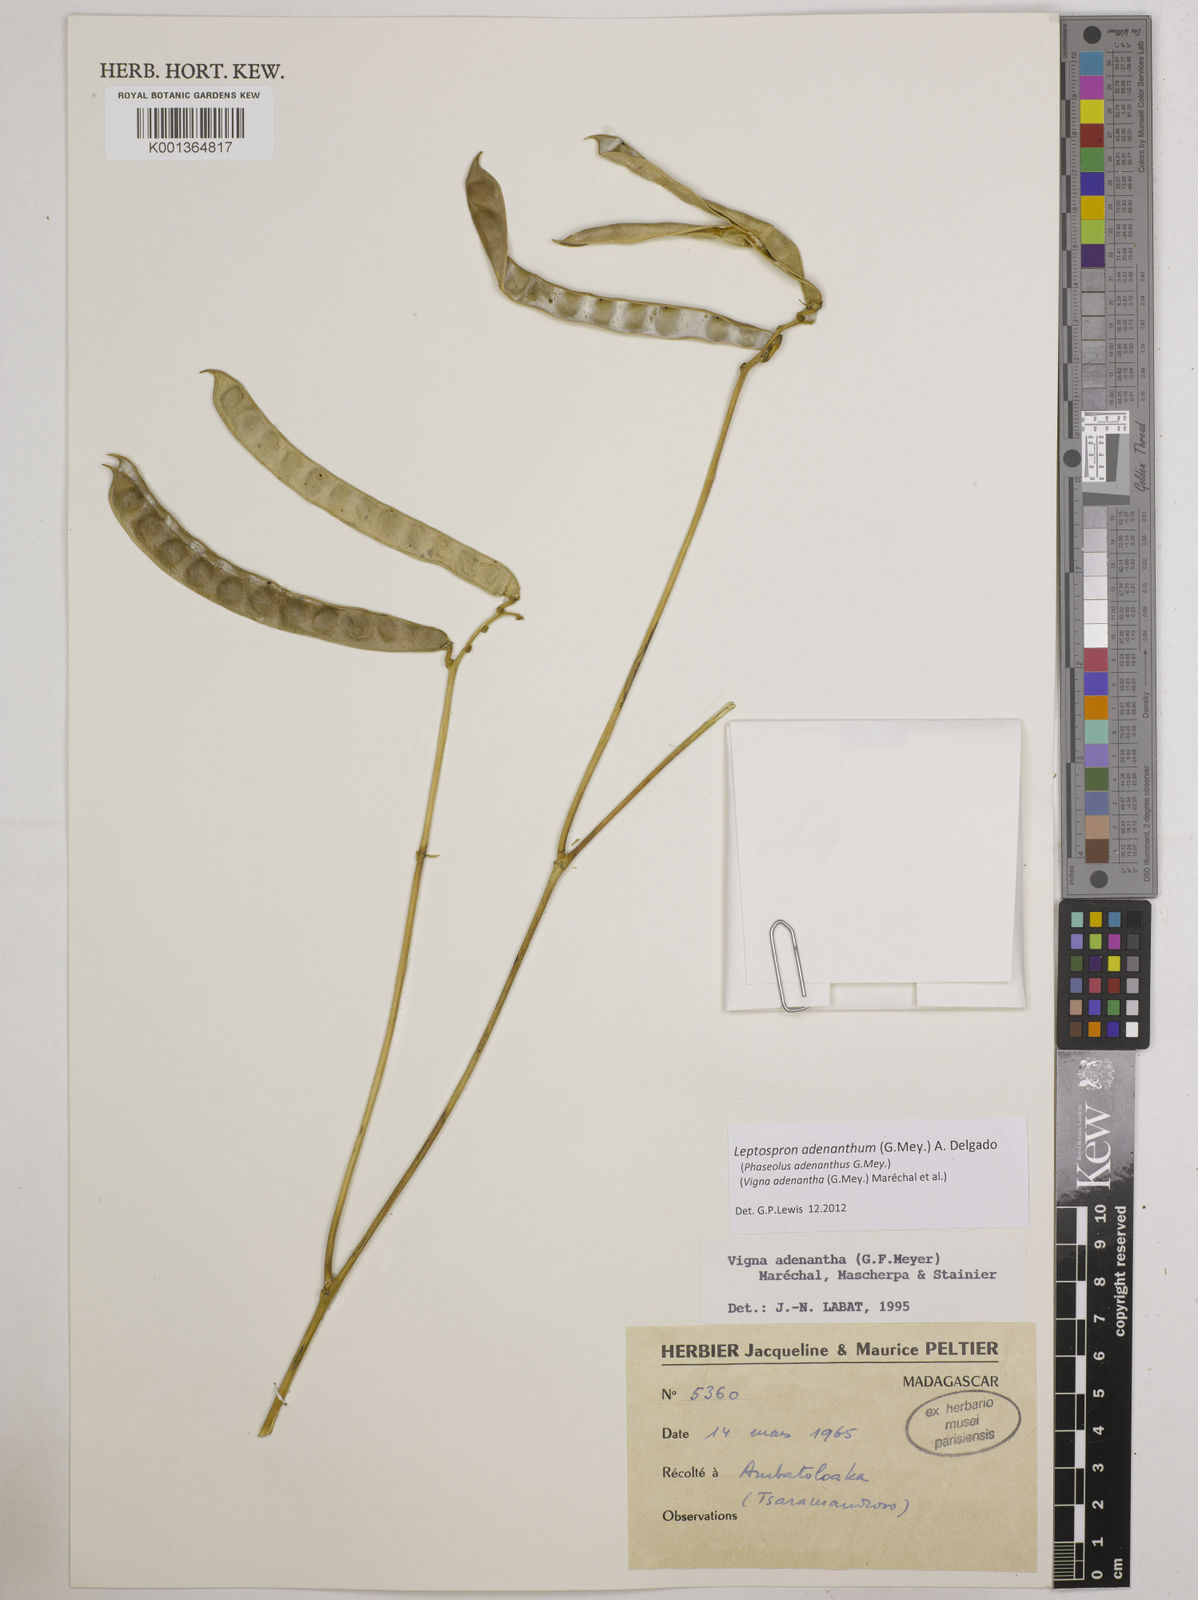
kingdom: Plantae
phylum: Tracheophyta
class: Magnoliopsida
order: Fabales
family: Fabaceae
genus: Leptospron
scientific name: Leptospron adenanthum
